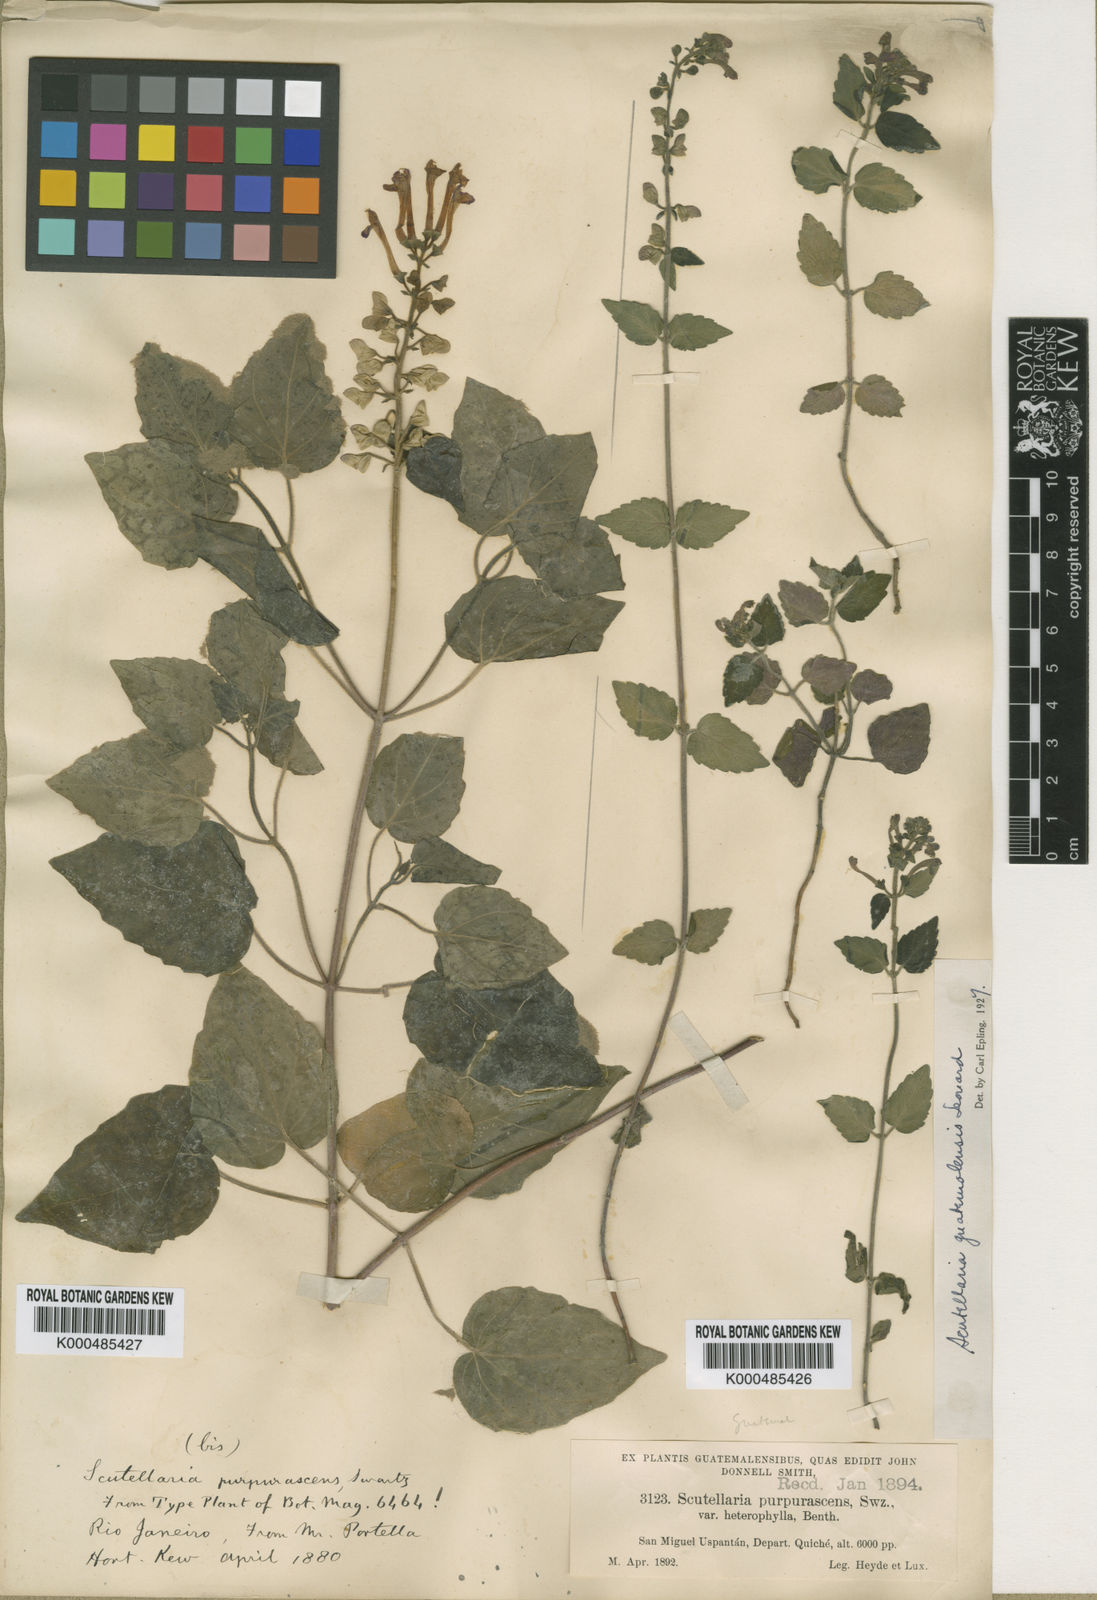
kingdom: Plantae
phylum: Tracheophyta
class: Magnoliopsida
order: Lamiales
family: Lamiaceae
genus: Scutellaria
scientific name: Scutellaria guatemalensis
